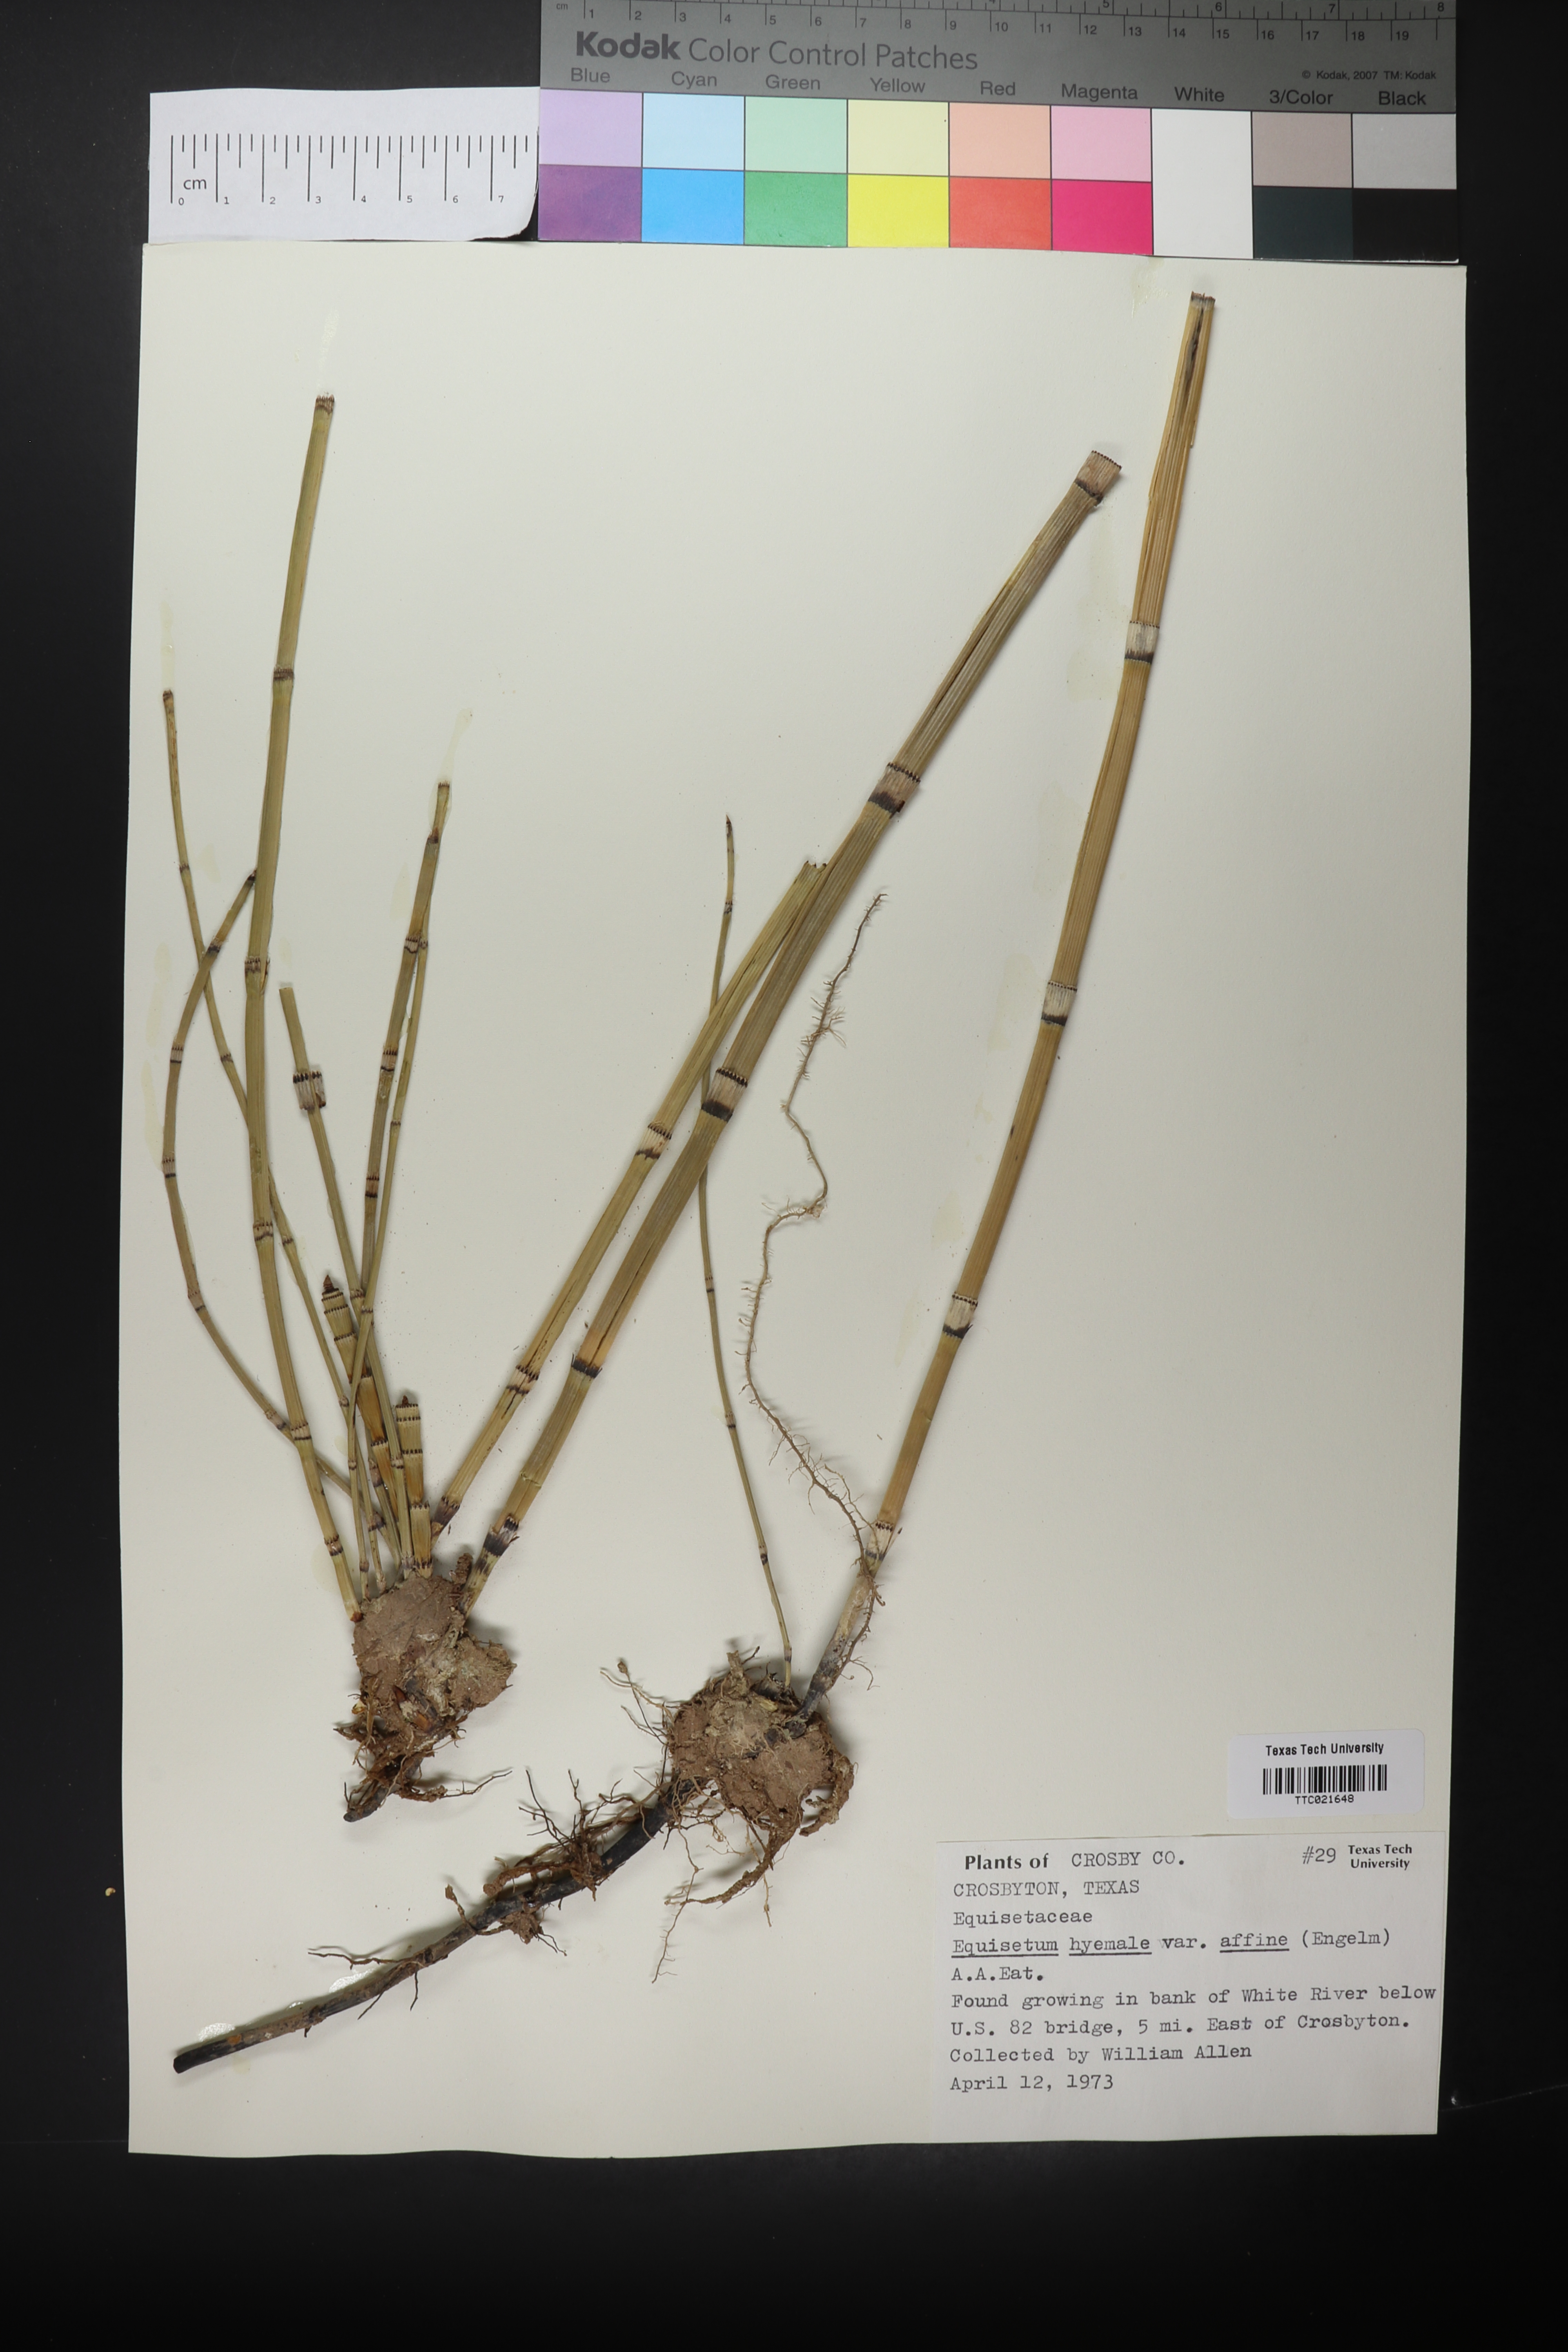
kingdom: Plantae
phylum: Tracheophyta
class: Polypodiopsida
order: Equisetales
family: Equisetaceae
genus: Equisetum
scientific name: Equisetum praealtum
